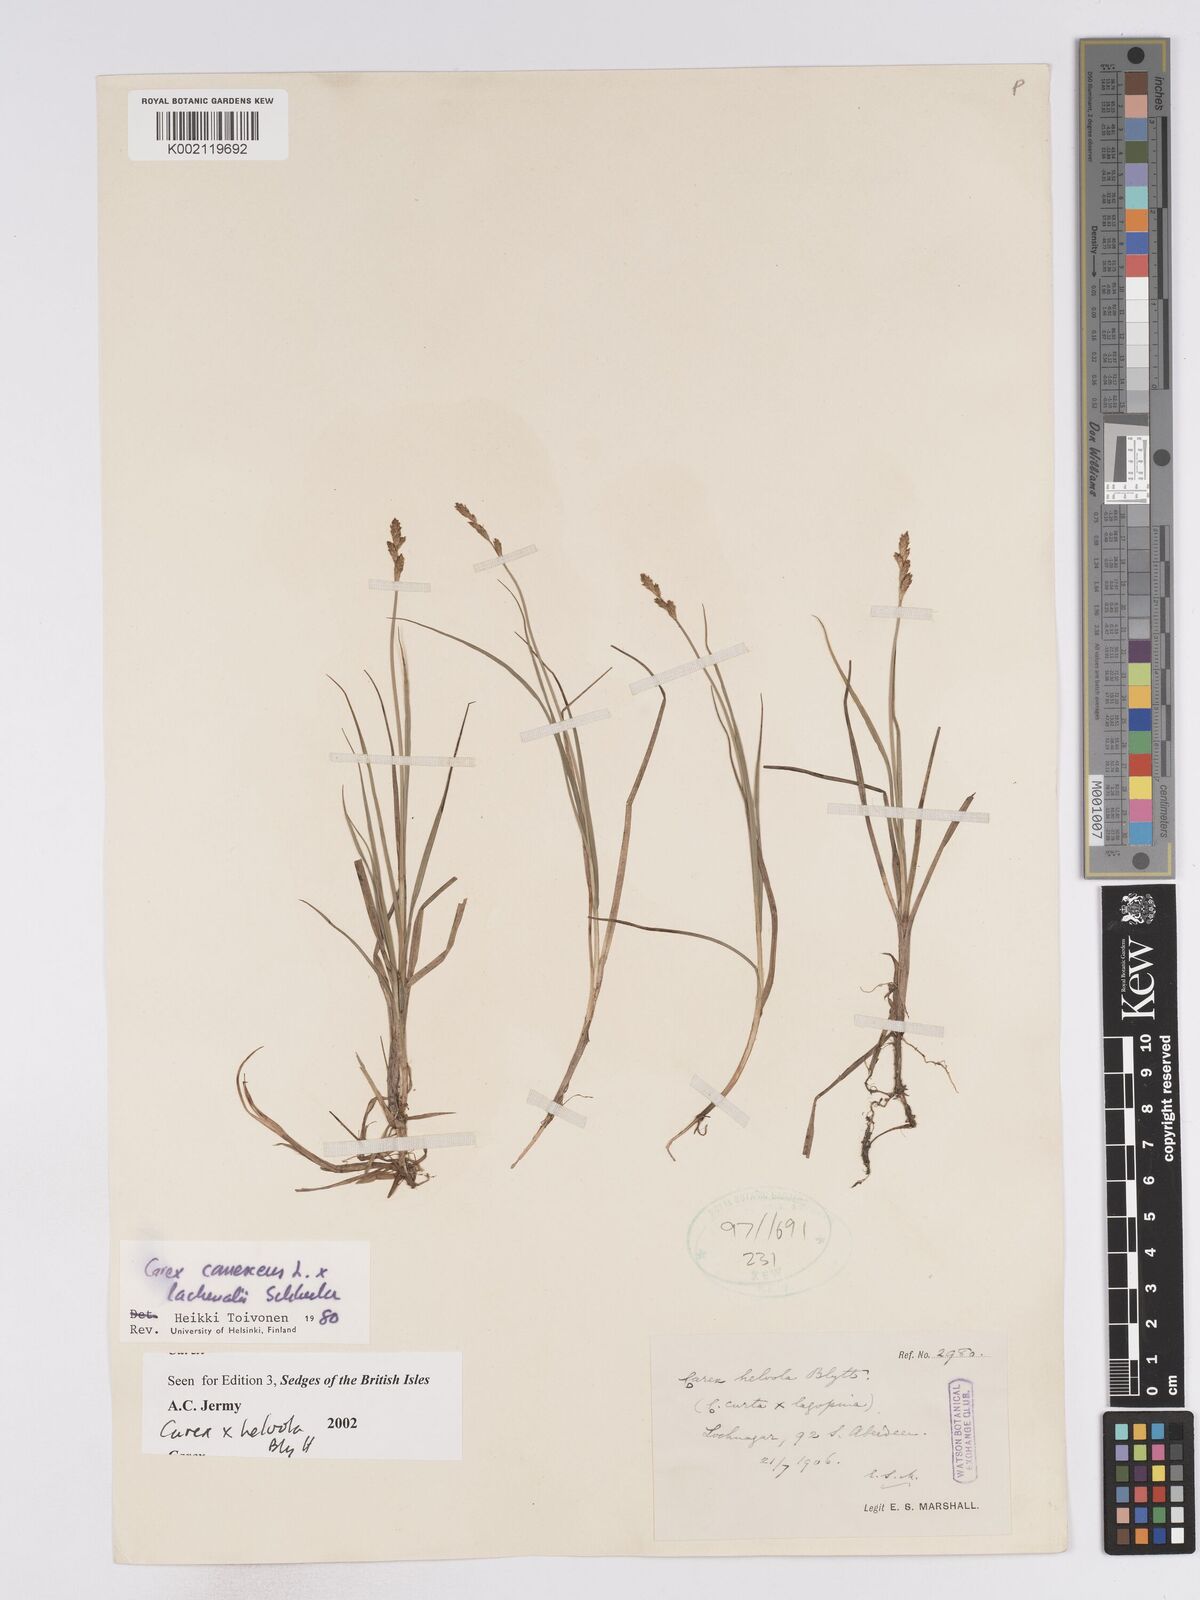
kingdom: Plantae
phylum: Tracheophyta
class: Liliopsida
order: Poales
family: Cyperaceae
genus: Carex
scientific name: Carex
